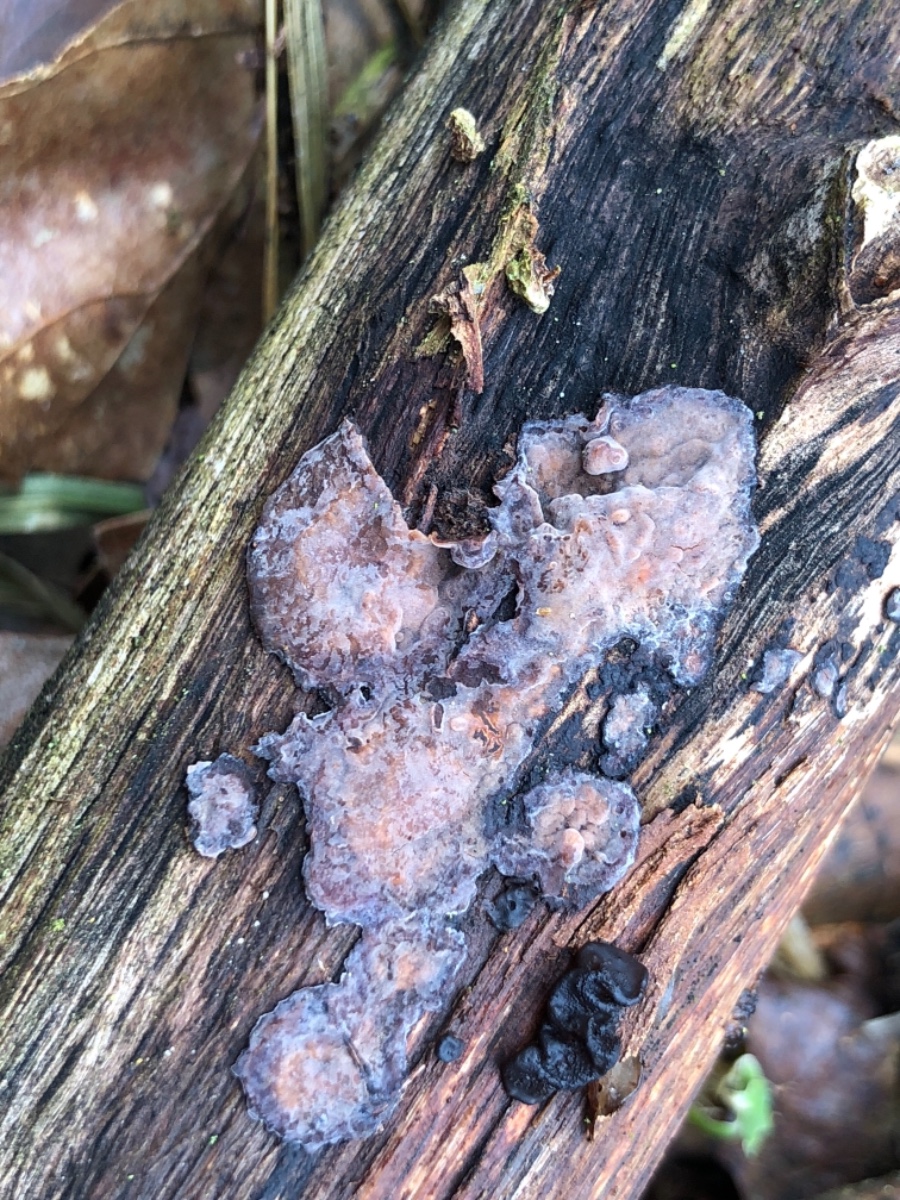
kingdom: Fungi
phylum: Basidiomycota
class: Agaricomycetes
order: Russulales
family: Peniophoraceae
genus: Peniophora
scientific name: Peniophora quercina
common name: ege-voksskind
